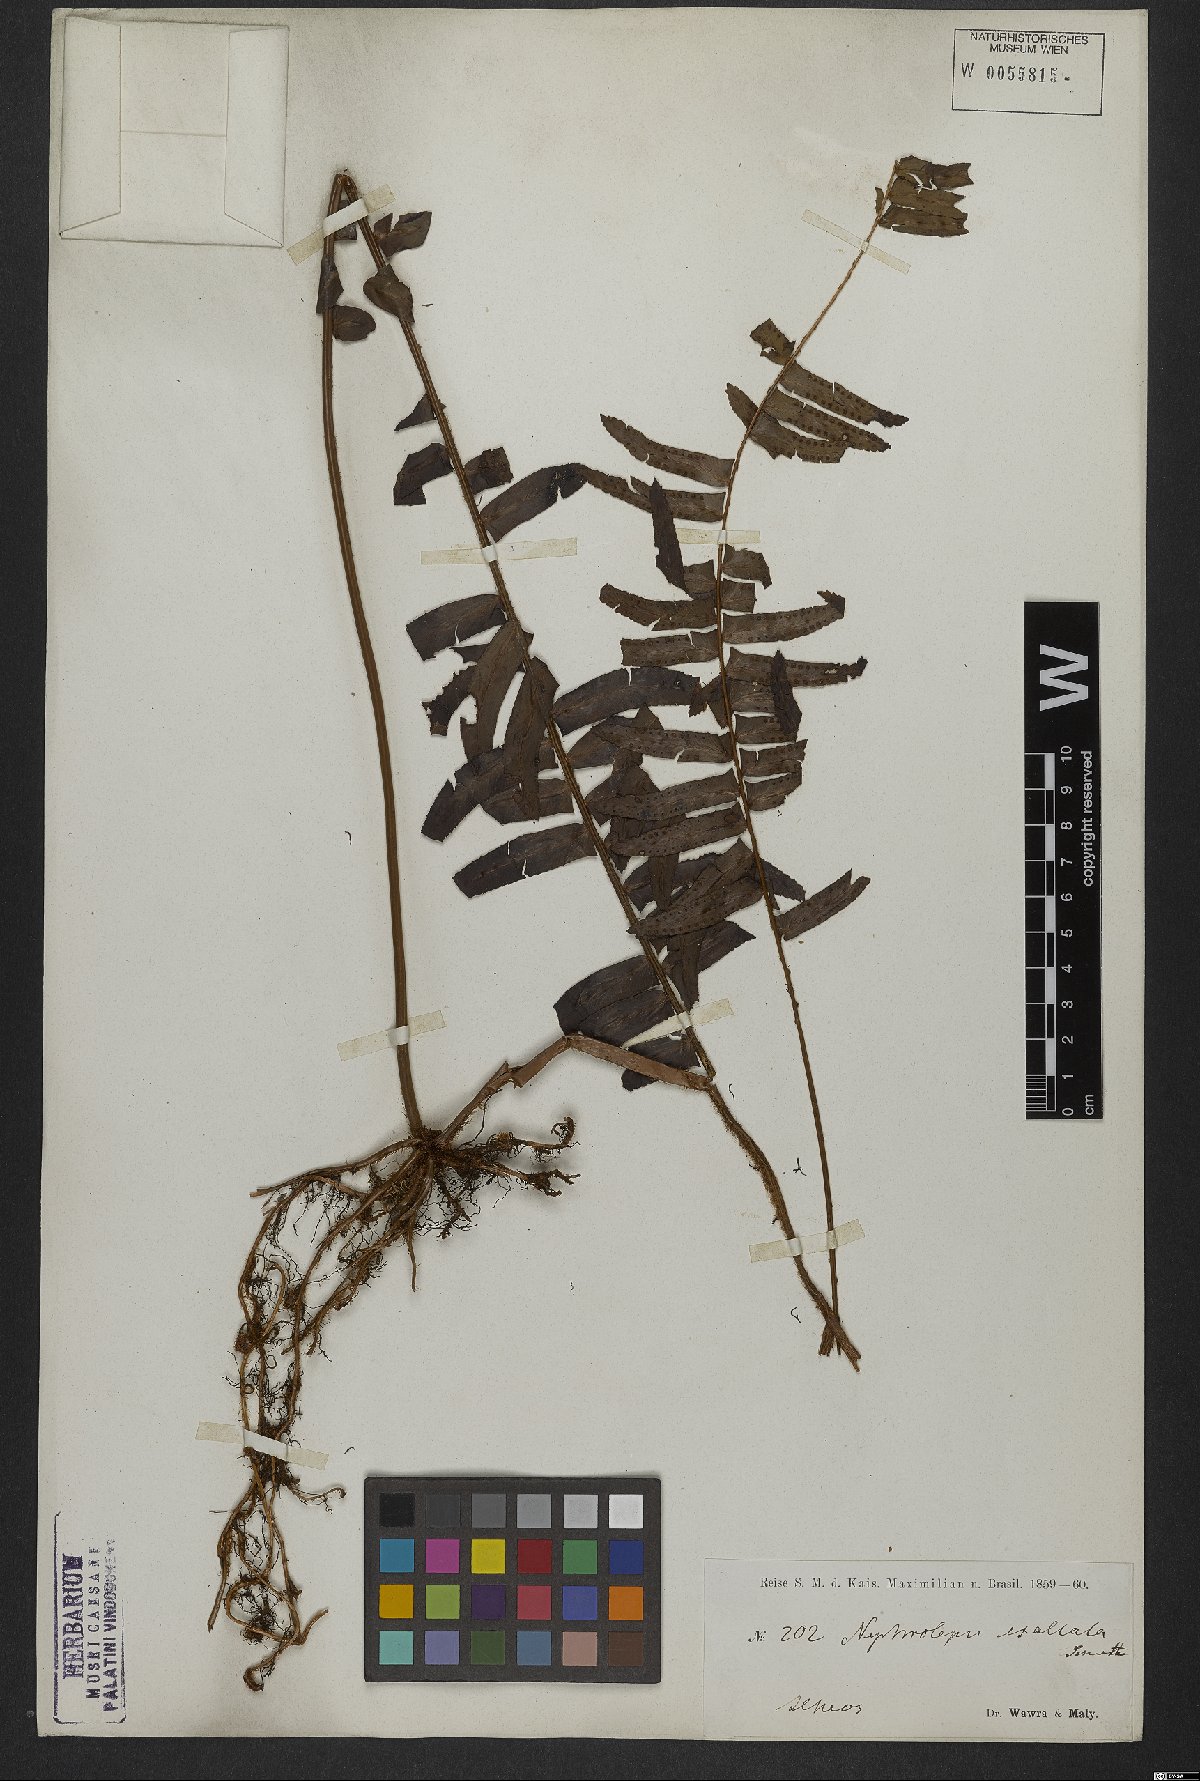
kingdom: Plantae
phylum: Tracheophyta
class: Polypodiopsida
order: Polypodiales
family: Nephrolepidaceae
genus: Nephrolepis
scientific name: Nephrolepis exaltata
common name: Sword fern
